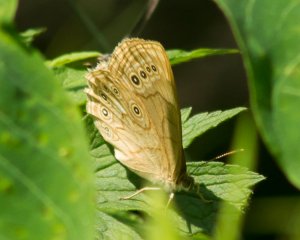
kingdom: Animalia
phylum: Arthropoda
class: Insecta
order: Lepidoptera
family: Nymphalidae
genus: Lethe
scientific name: Lethe eurydice
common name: Eyed Brown
